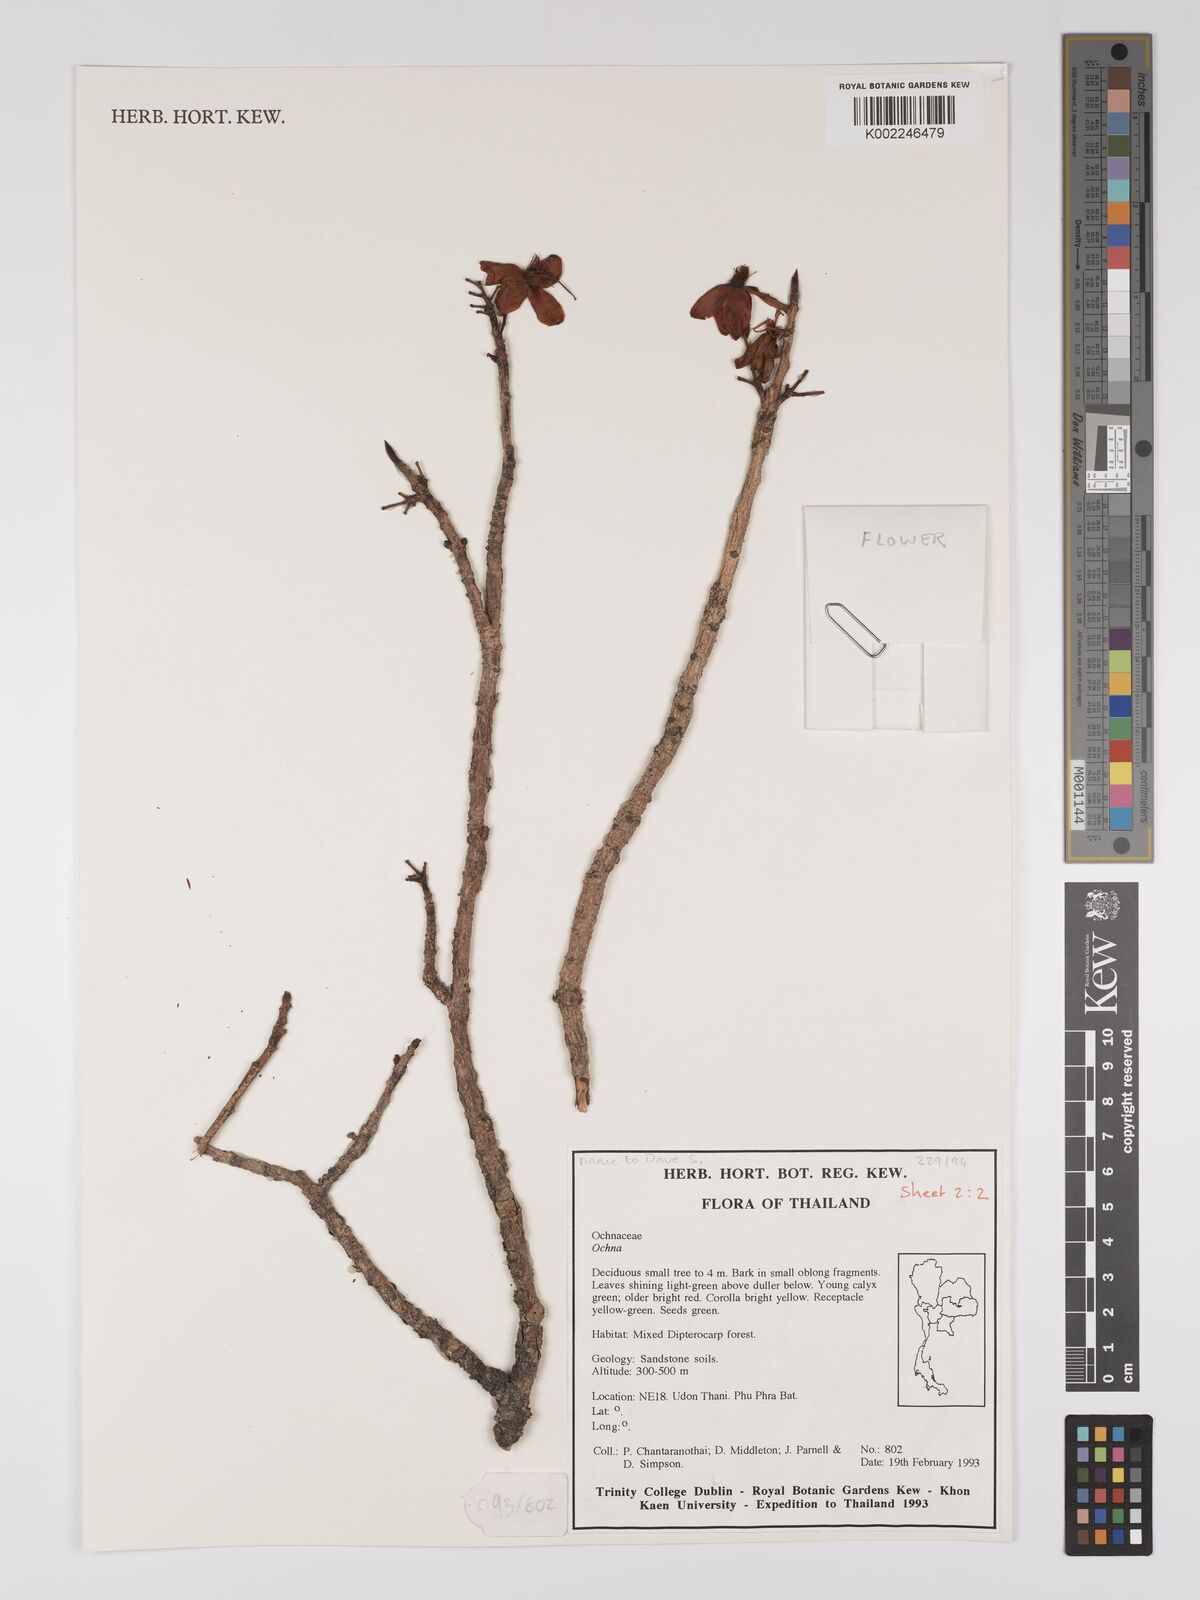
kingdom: Plantae
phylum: Tracheophyta
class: Magnoliopsida
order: Malpighiales
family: Ochnaceae
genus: Ochna
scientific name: Ochna
